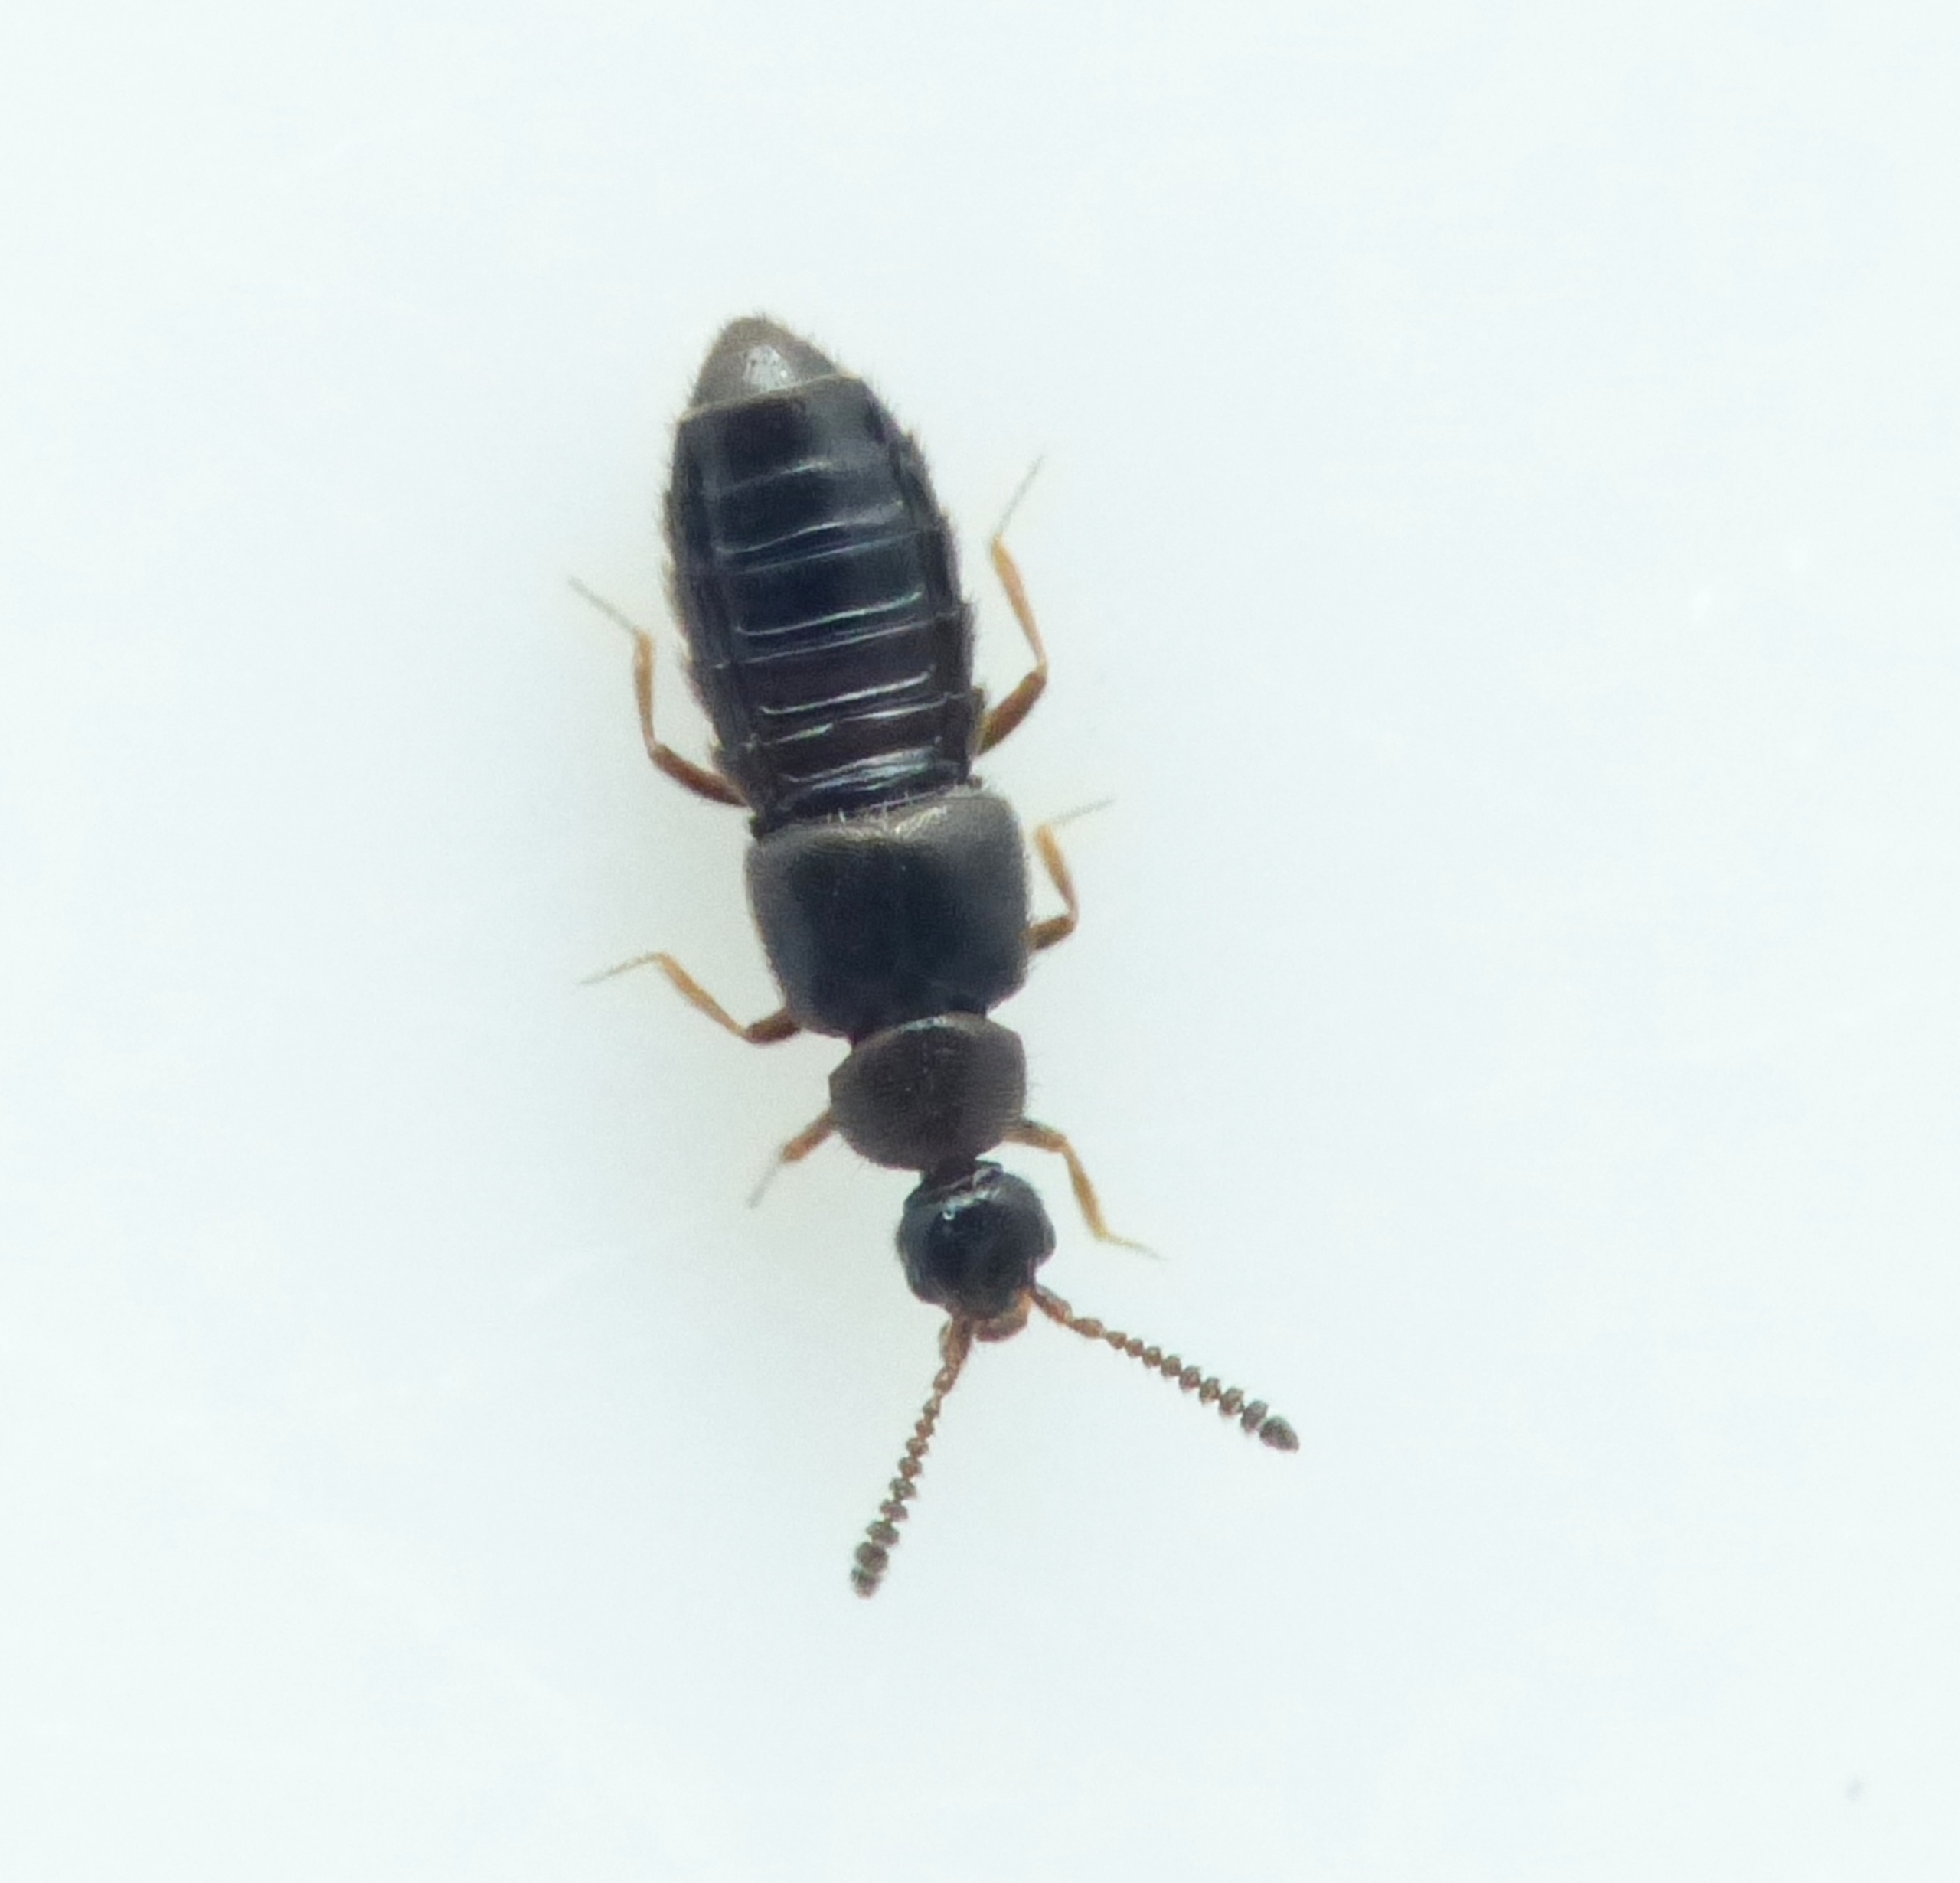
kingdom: Animalia
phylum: Arthropoda
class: Insecta
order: Coleoptera
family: Staphylinidae
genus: Trichiusa
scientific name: Trichiusa robustula
